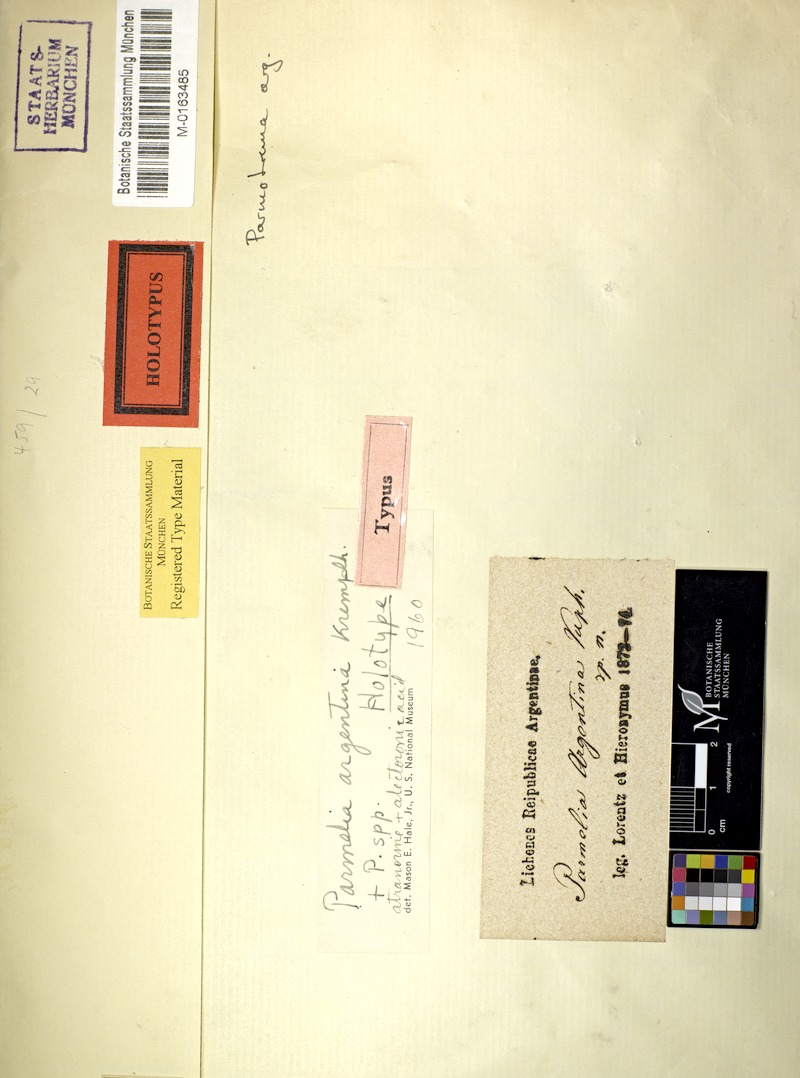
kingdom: Fungi
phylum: Ascomycota
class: Lecanoromycetes
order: Lecanorales
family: Parmeliaceae
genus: Parmotrema
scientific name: Parmotrema argentinum
